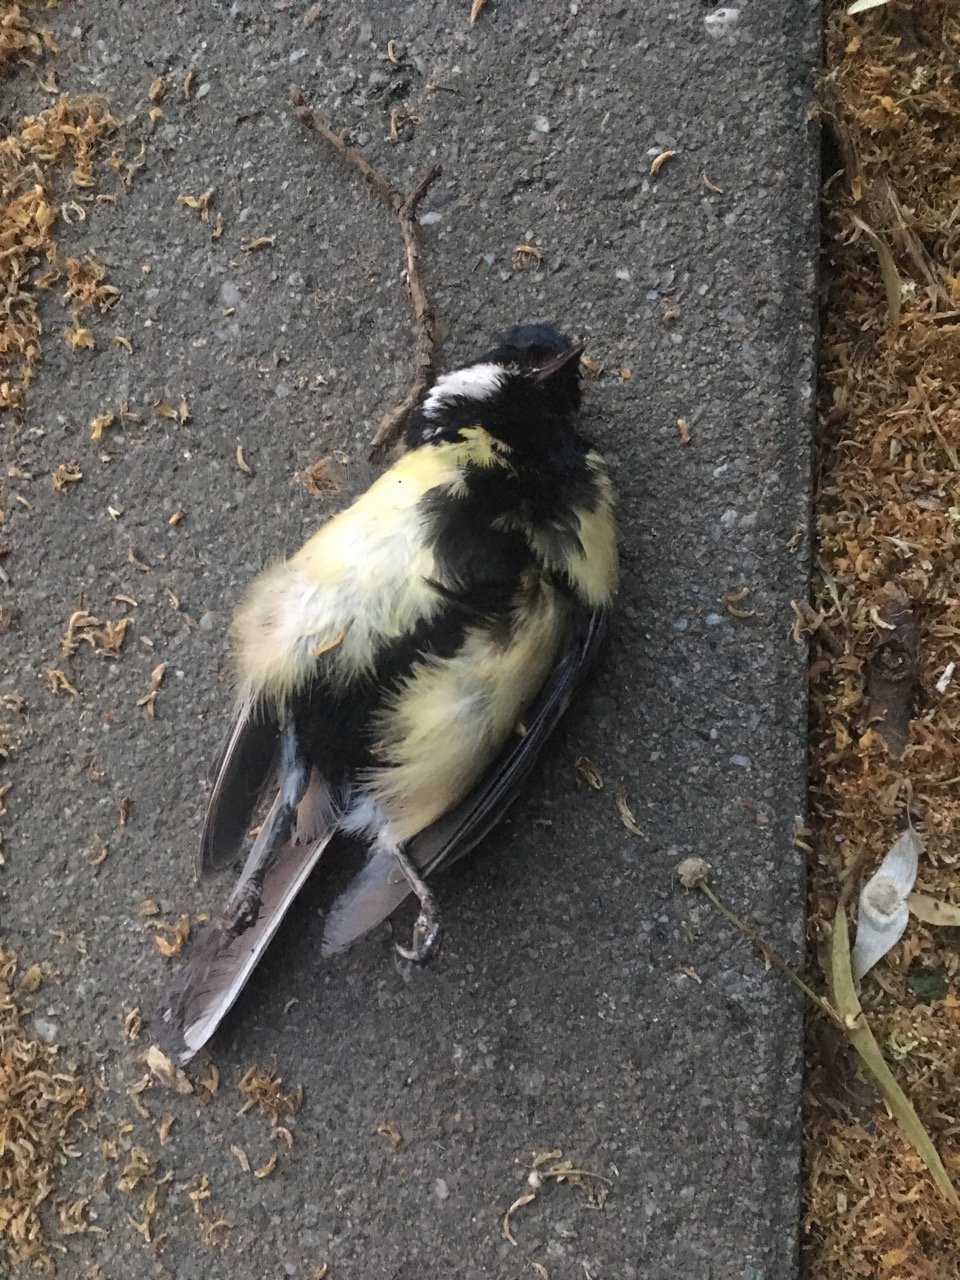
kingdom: Animalia
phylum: Chordata
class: Aves
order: Passeriformes
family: Paridae
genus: Parus
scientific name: Parus major
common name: Great tit
